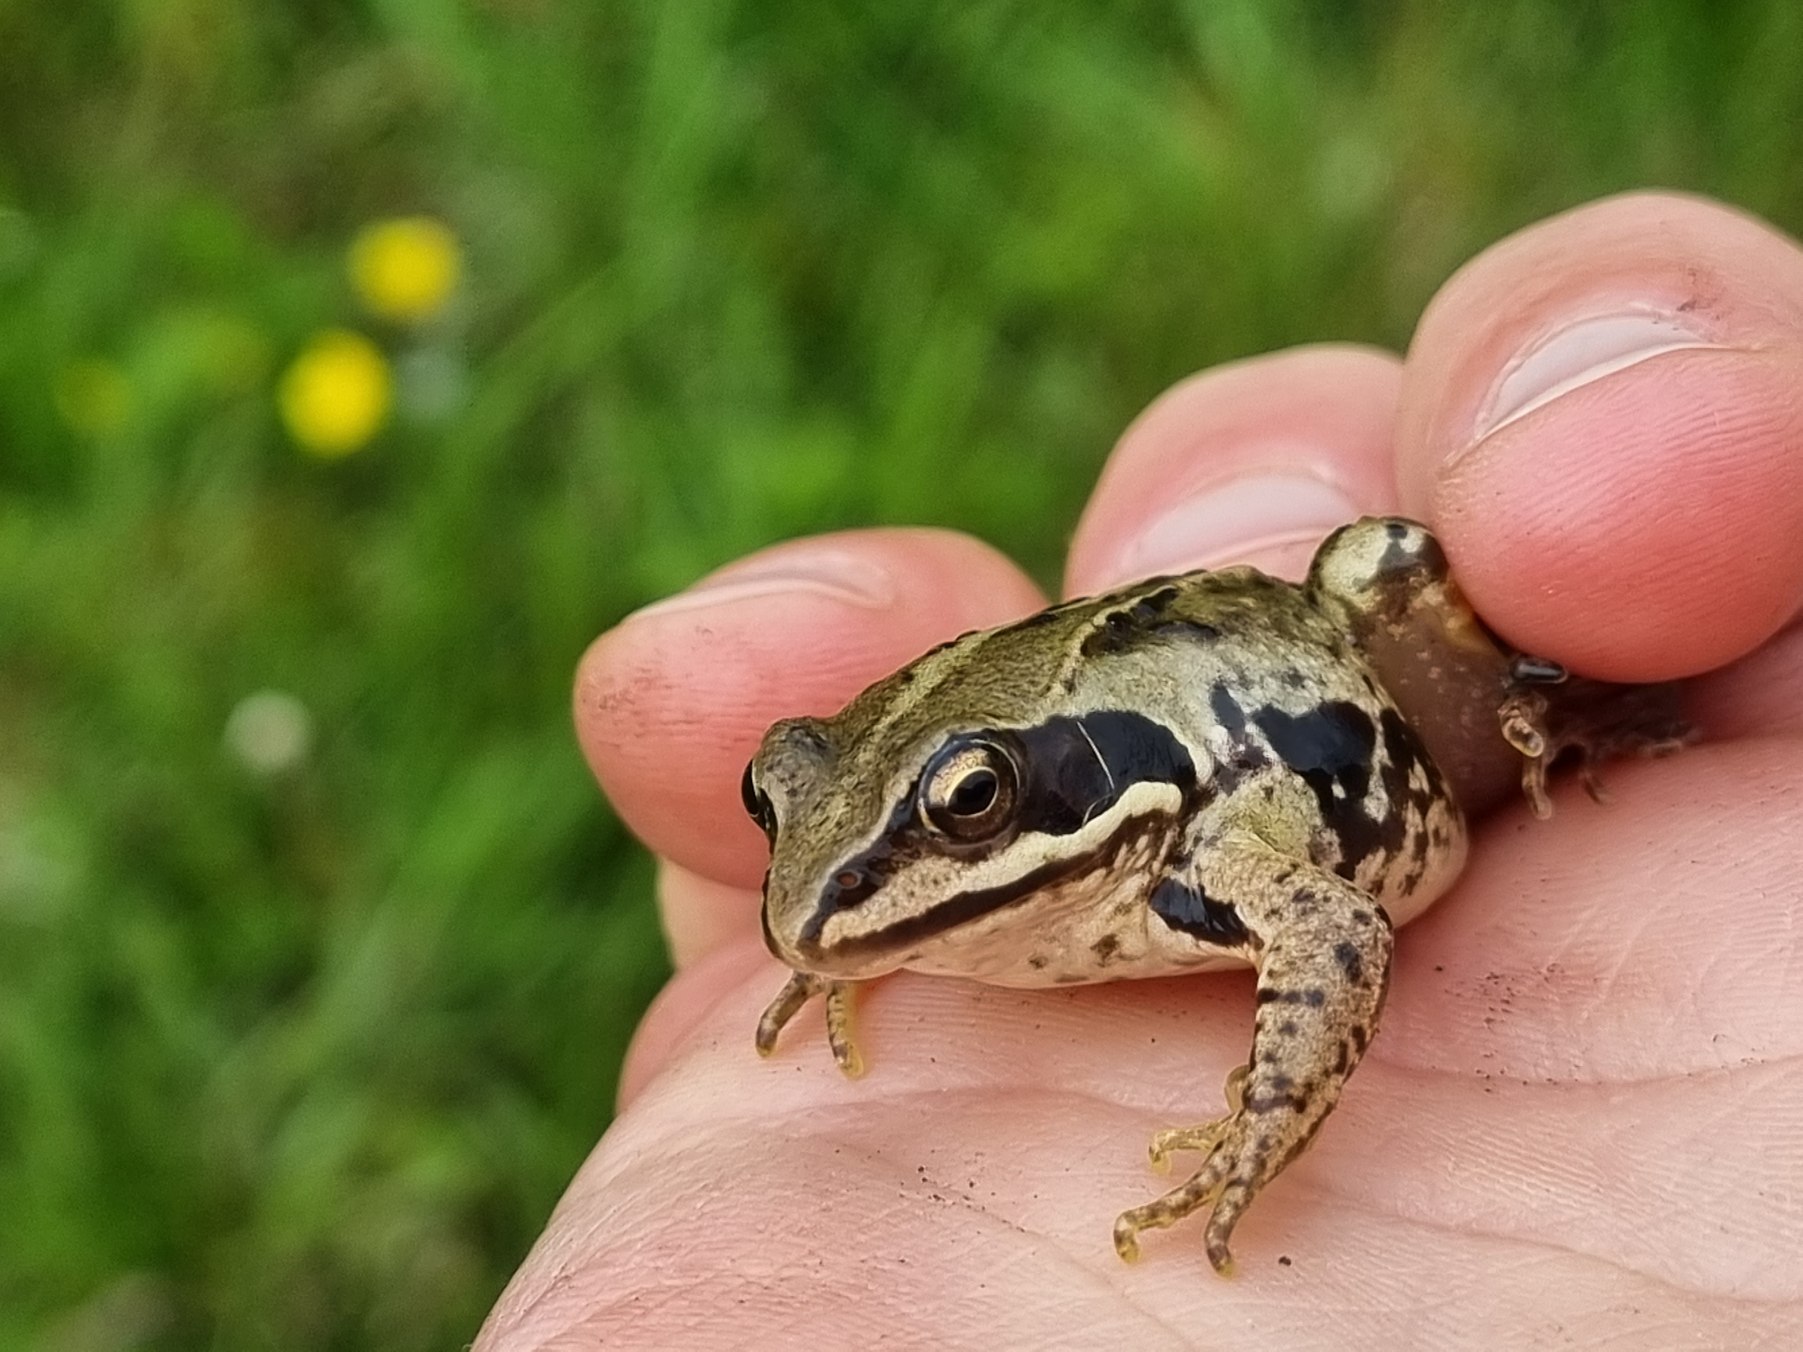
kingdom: Animalia
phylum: Chordata
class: Amphibia
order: Anura
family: Ranidae
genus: Rana
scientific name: Rana arvalis
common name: Spidssnudet frø
